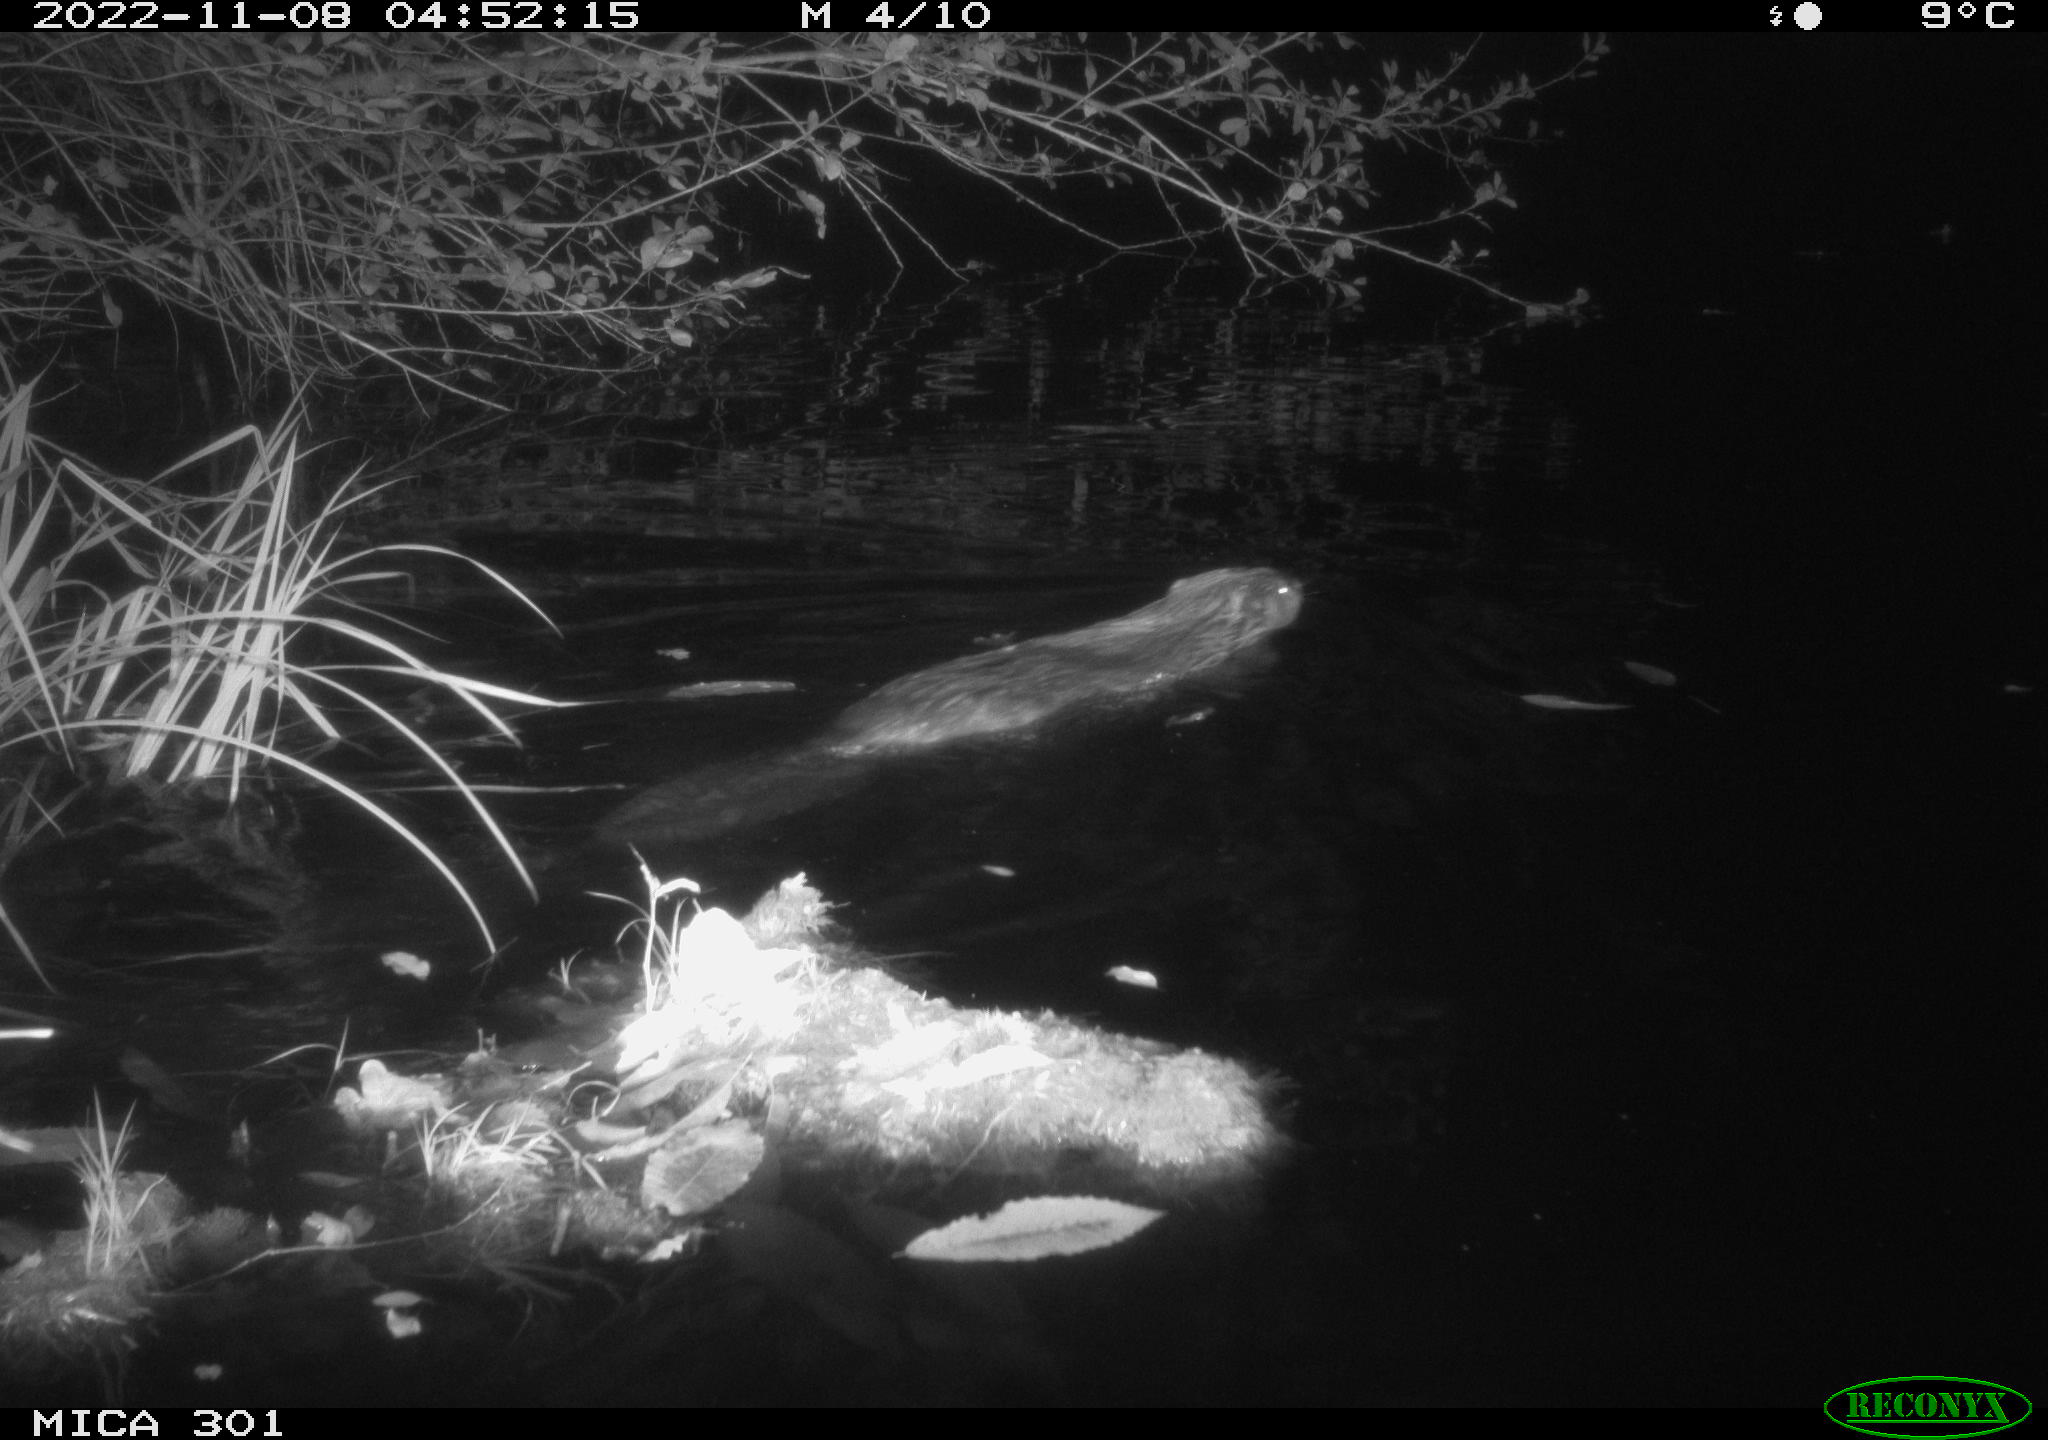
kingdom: Animalia
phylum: Chordata
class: Mammalia
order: Rodentia
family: Castoridae
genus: Castor
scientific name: Castor fiber
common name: Eurasian beaver
